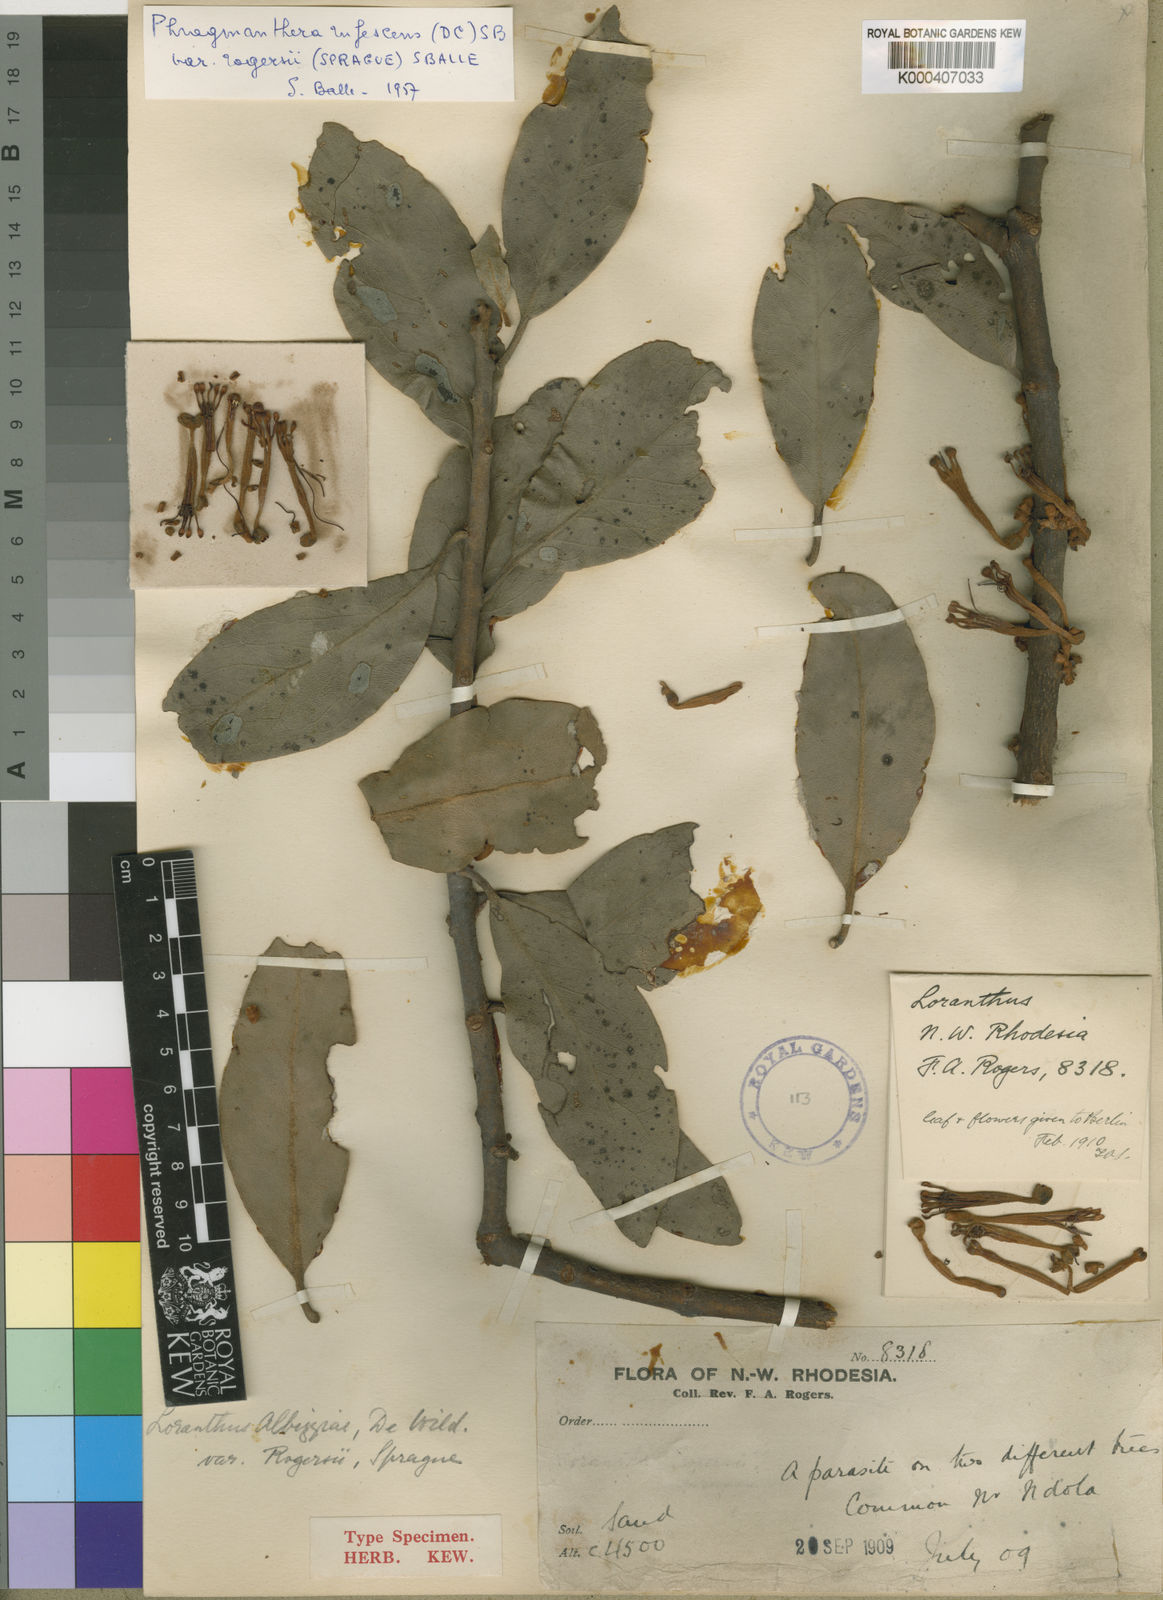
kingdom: Plantae
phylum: Tracheophyta
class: Magnoliopsida
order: Santalales
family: Loranthaceae
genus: Phragmanthera
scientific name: Phragmanthera
